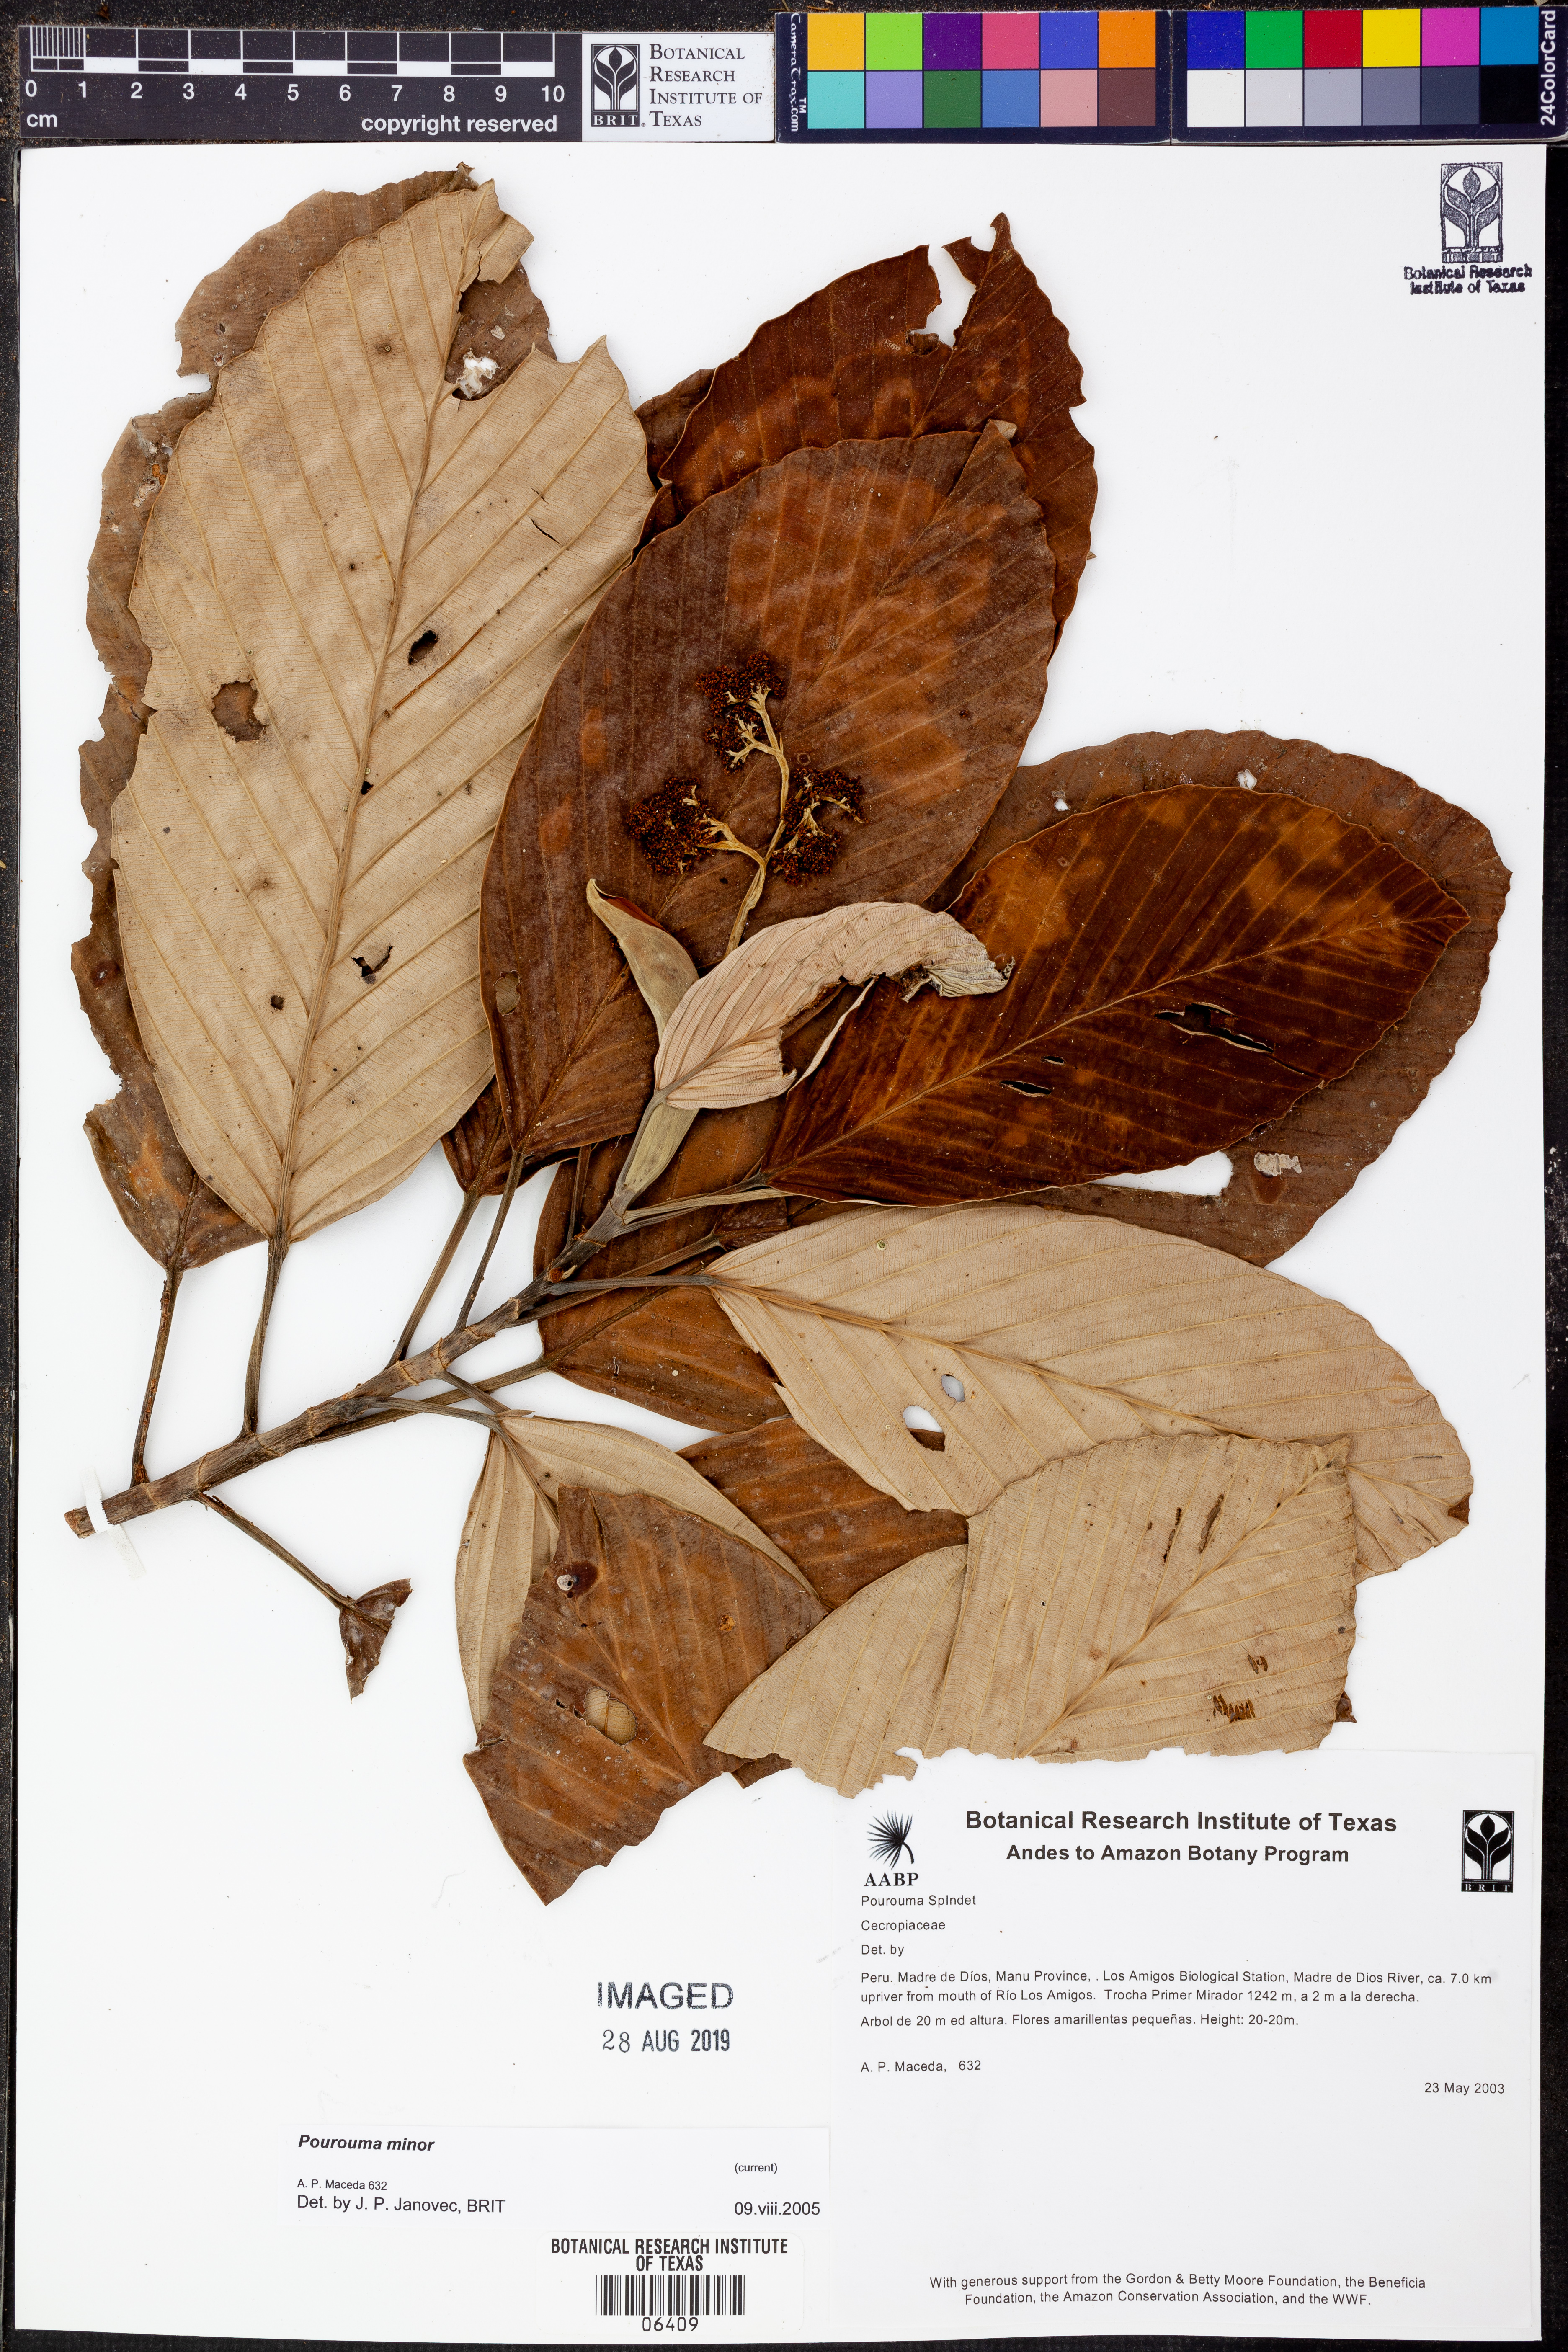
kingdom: Plantae
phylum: Tracheophyta
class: Magnoliopsida
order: Rosales
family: Urticaceae
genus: Pourouma
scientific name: Pourouma
